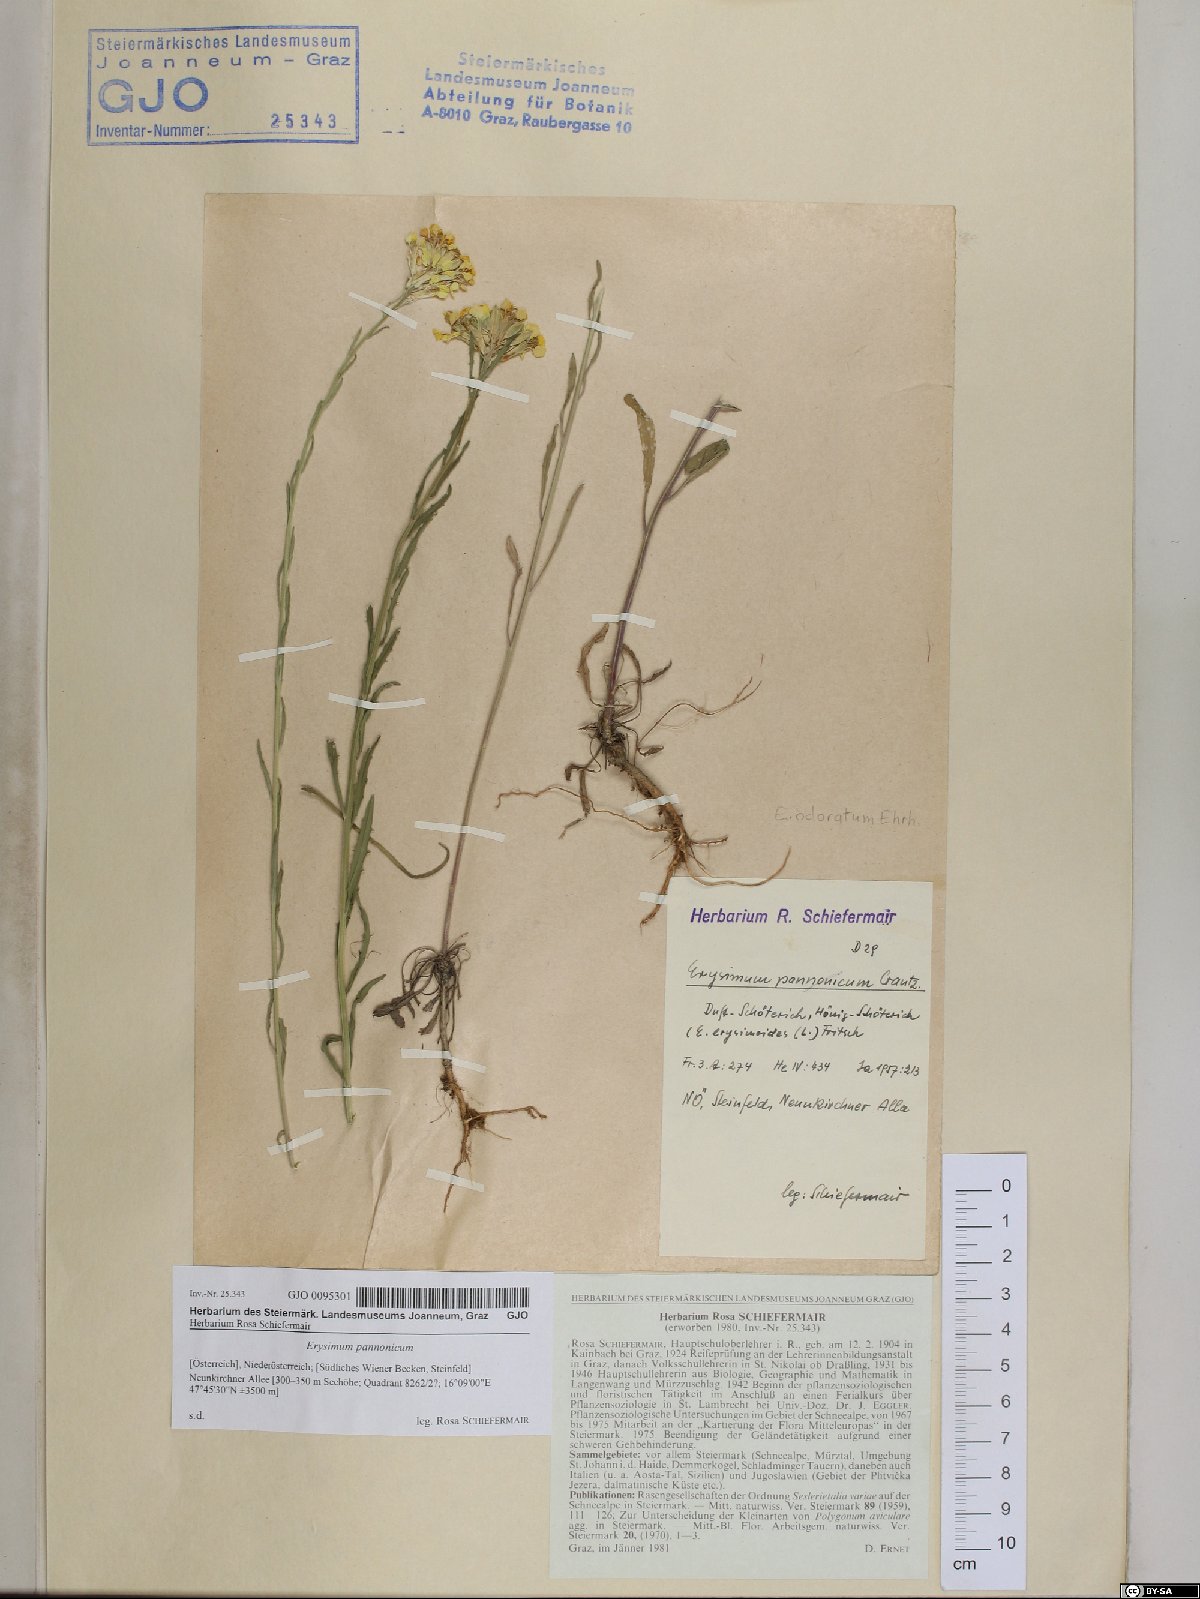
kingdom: Plantae
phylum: Tracheophyta
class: Magnoliopsida
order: Brassicales
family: Brassicaceae
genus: Erysimum
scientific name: Erysimum odoratum
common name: Smelly wallflower
